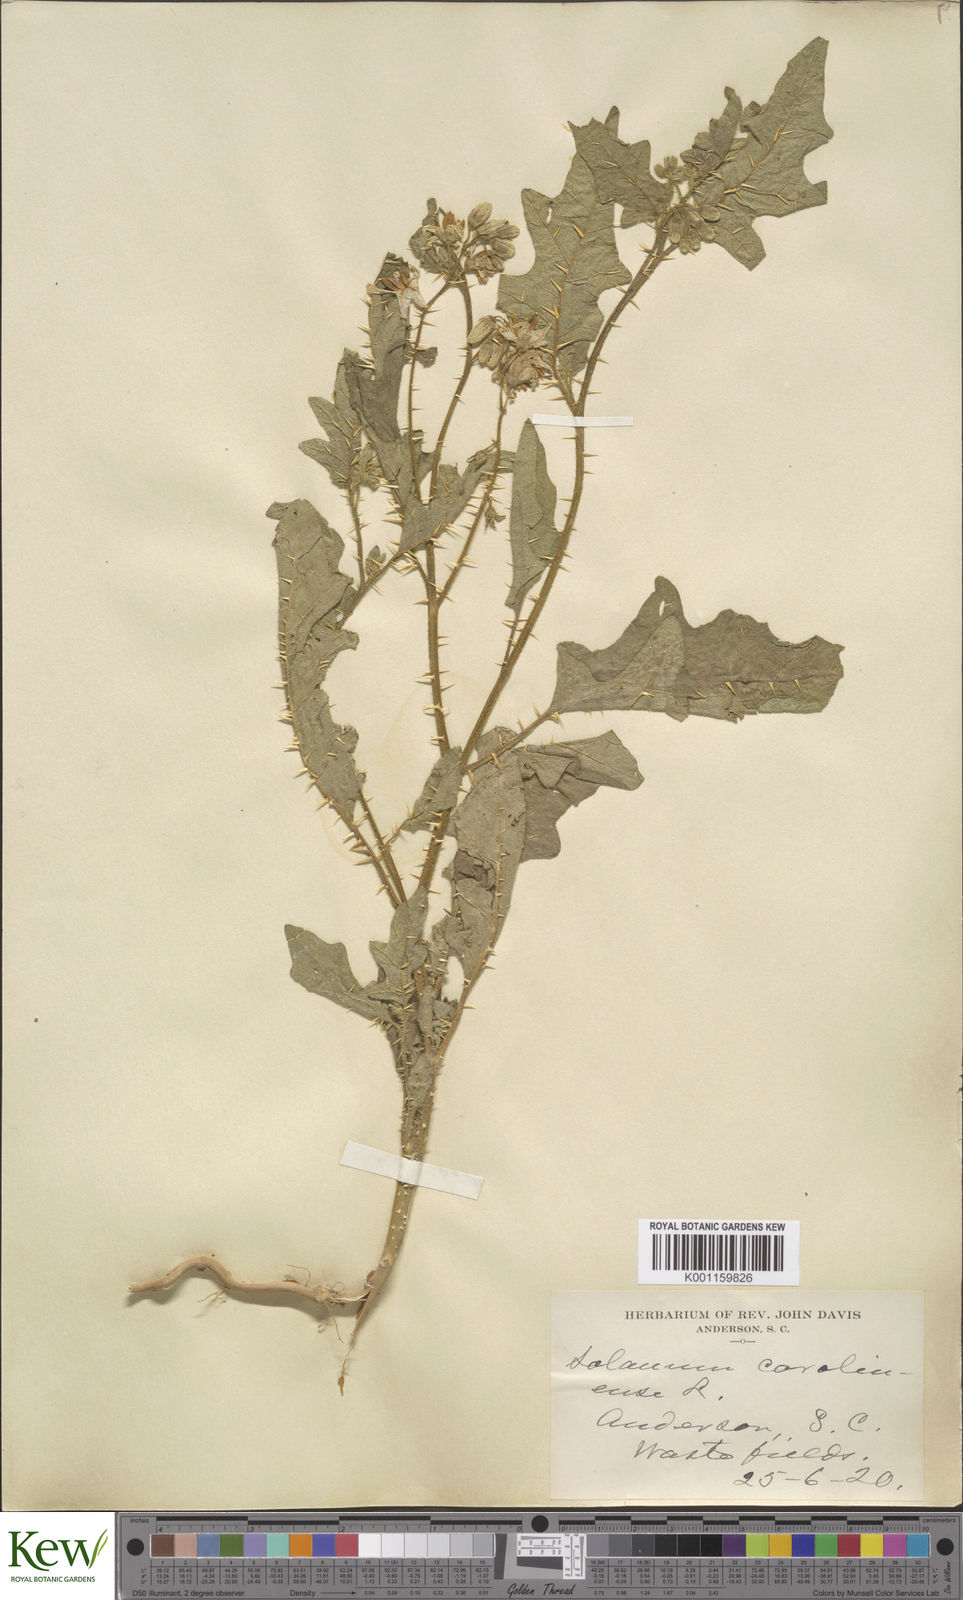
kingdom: Plantae
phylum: Tracheophyta
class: Magnoliopsida
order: Solanales
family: Solanaceae
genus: Solanum
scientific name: Solanum carolinense
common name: Horse-nettle
